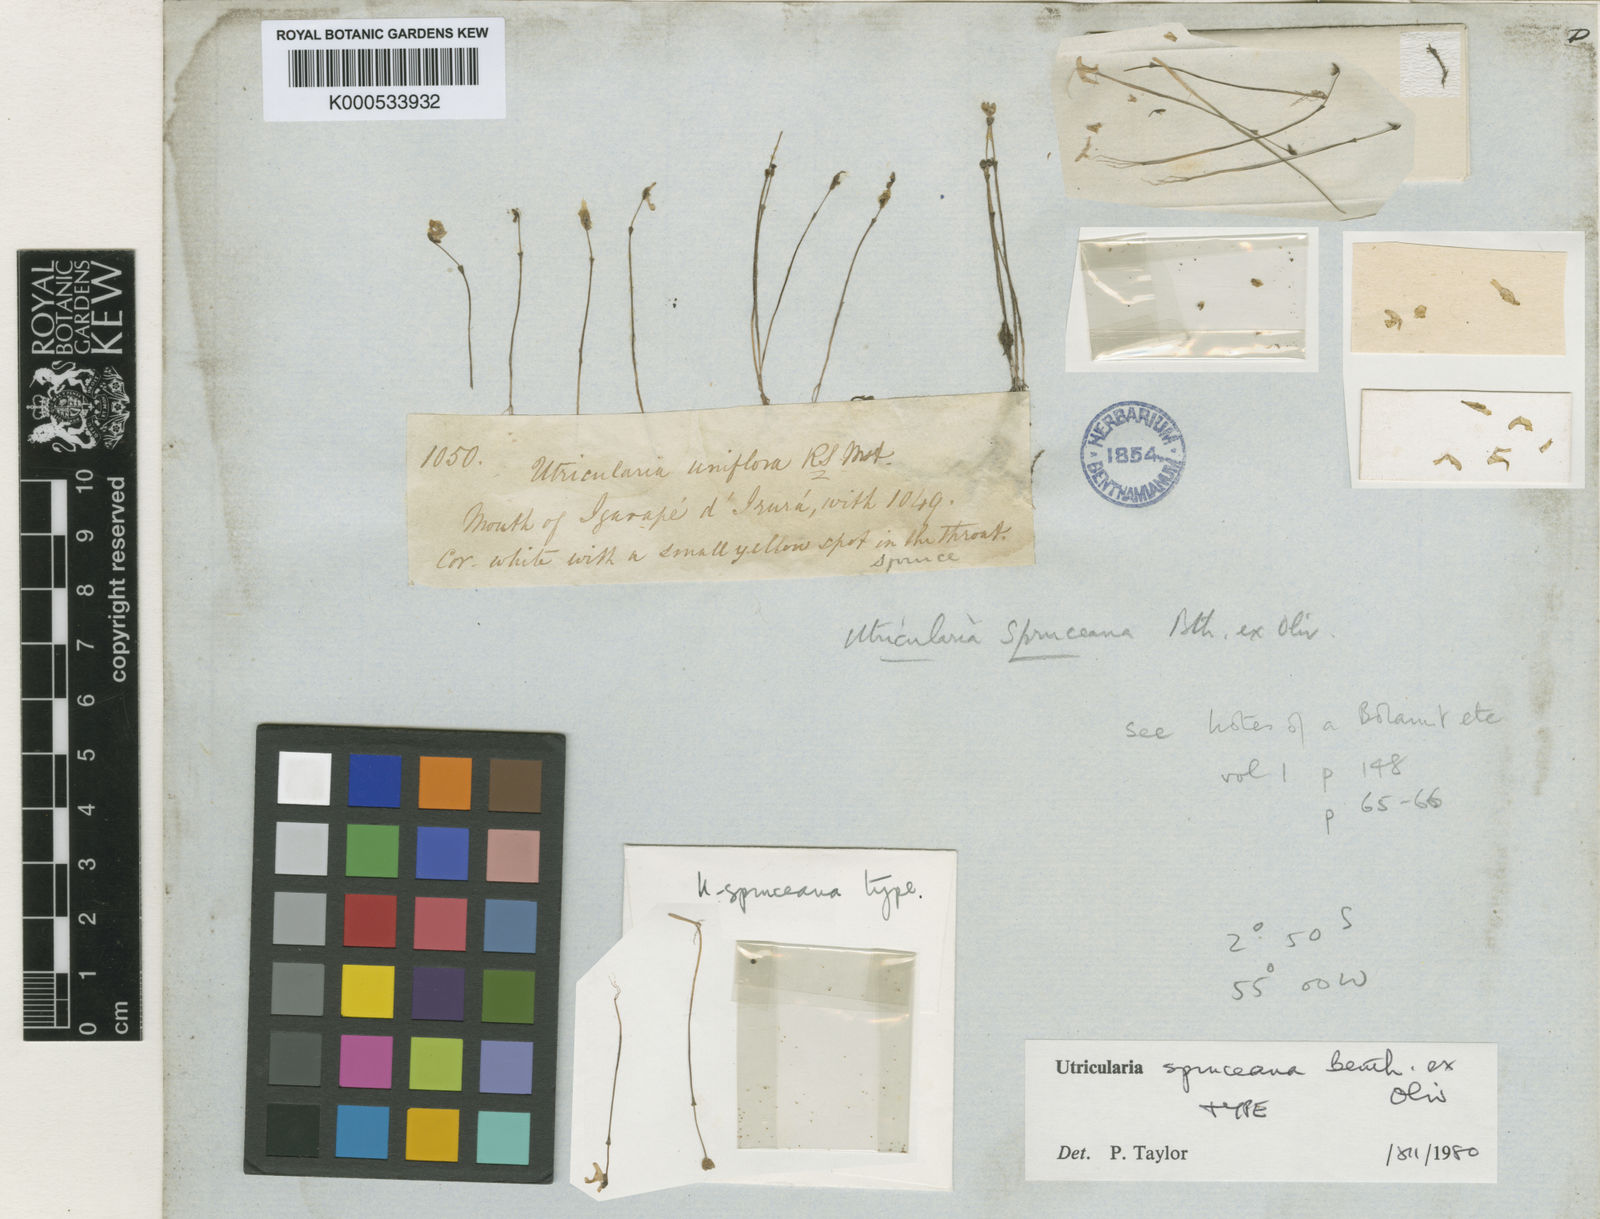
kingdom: Plantae
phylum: Tracheophyta
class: Magnoliopsida
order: Lamiales
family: Lentibulariaceae
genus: Utricularia
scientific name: Utricularia spruceana
